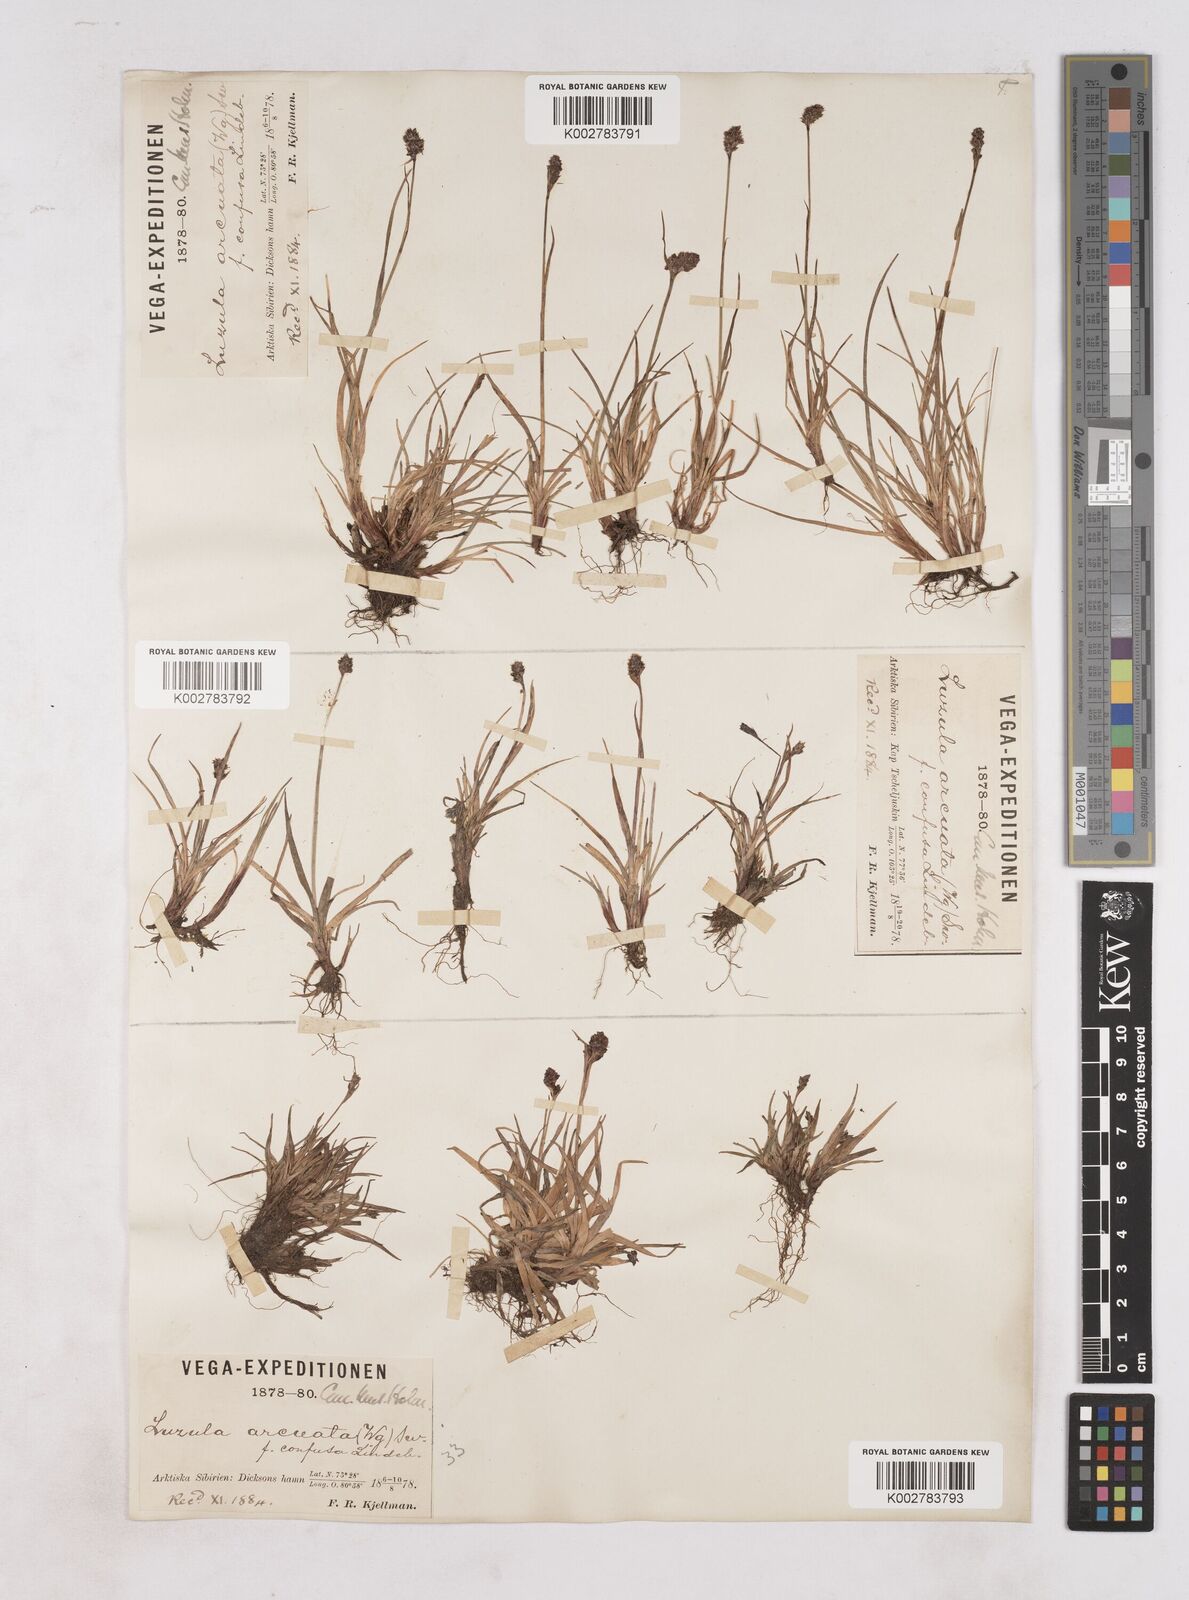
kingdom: Plantae
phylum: Tracheophyta
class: Liliopsida
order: Poales
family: Juncaceae
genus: Luzula
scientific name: Luzula nivalis
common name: Arctic woodrush
